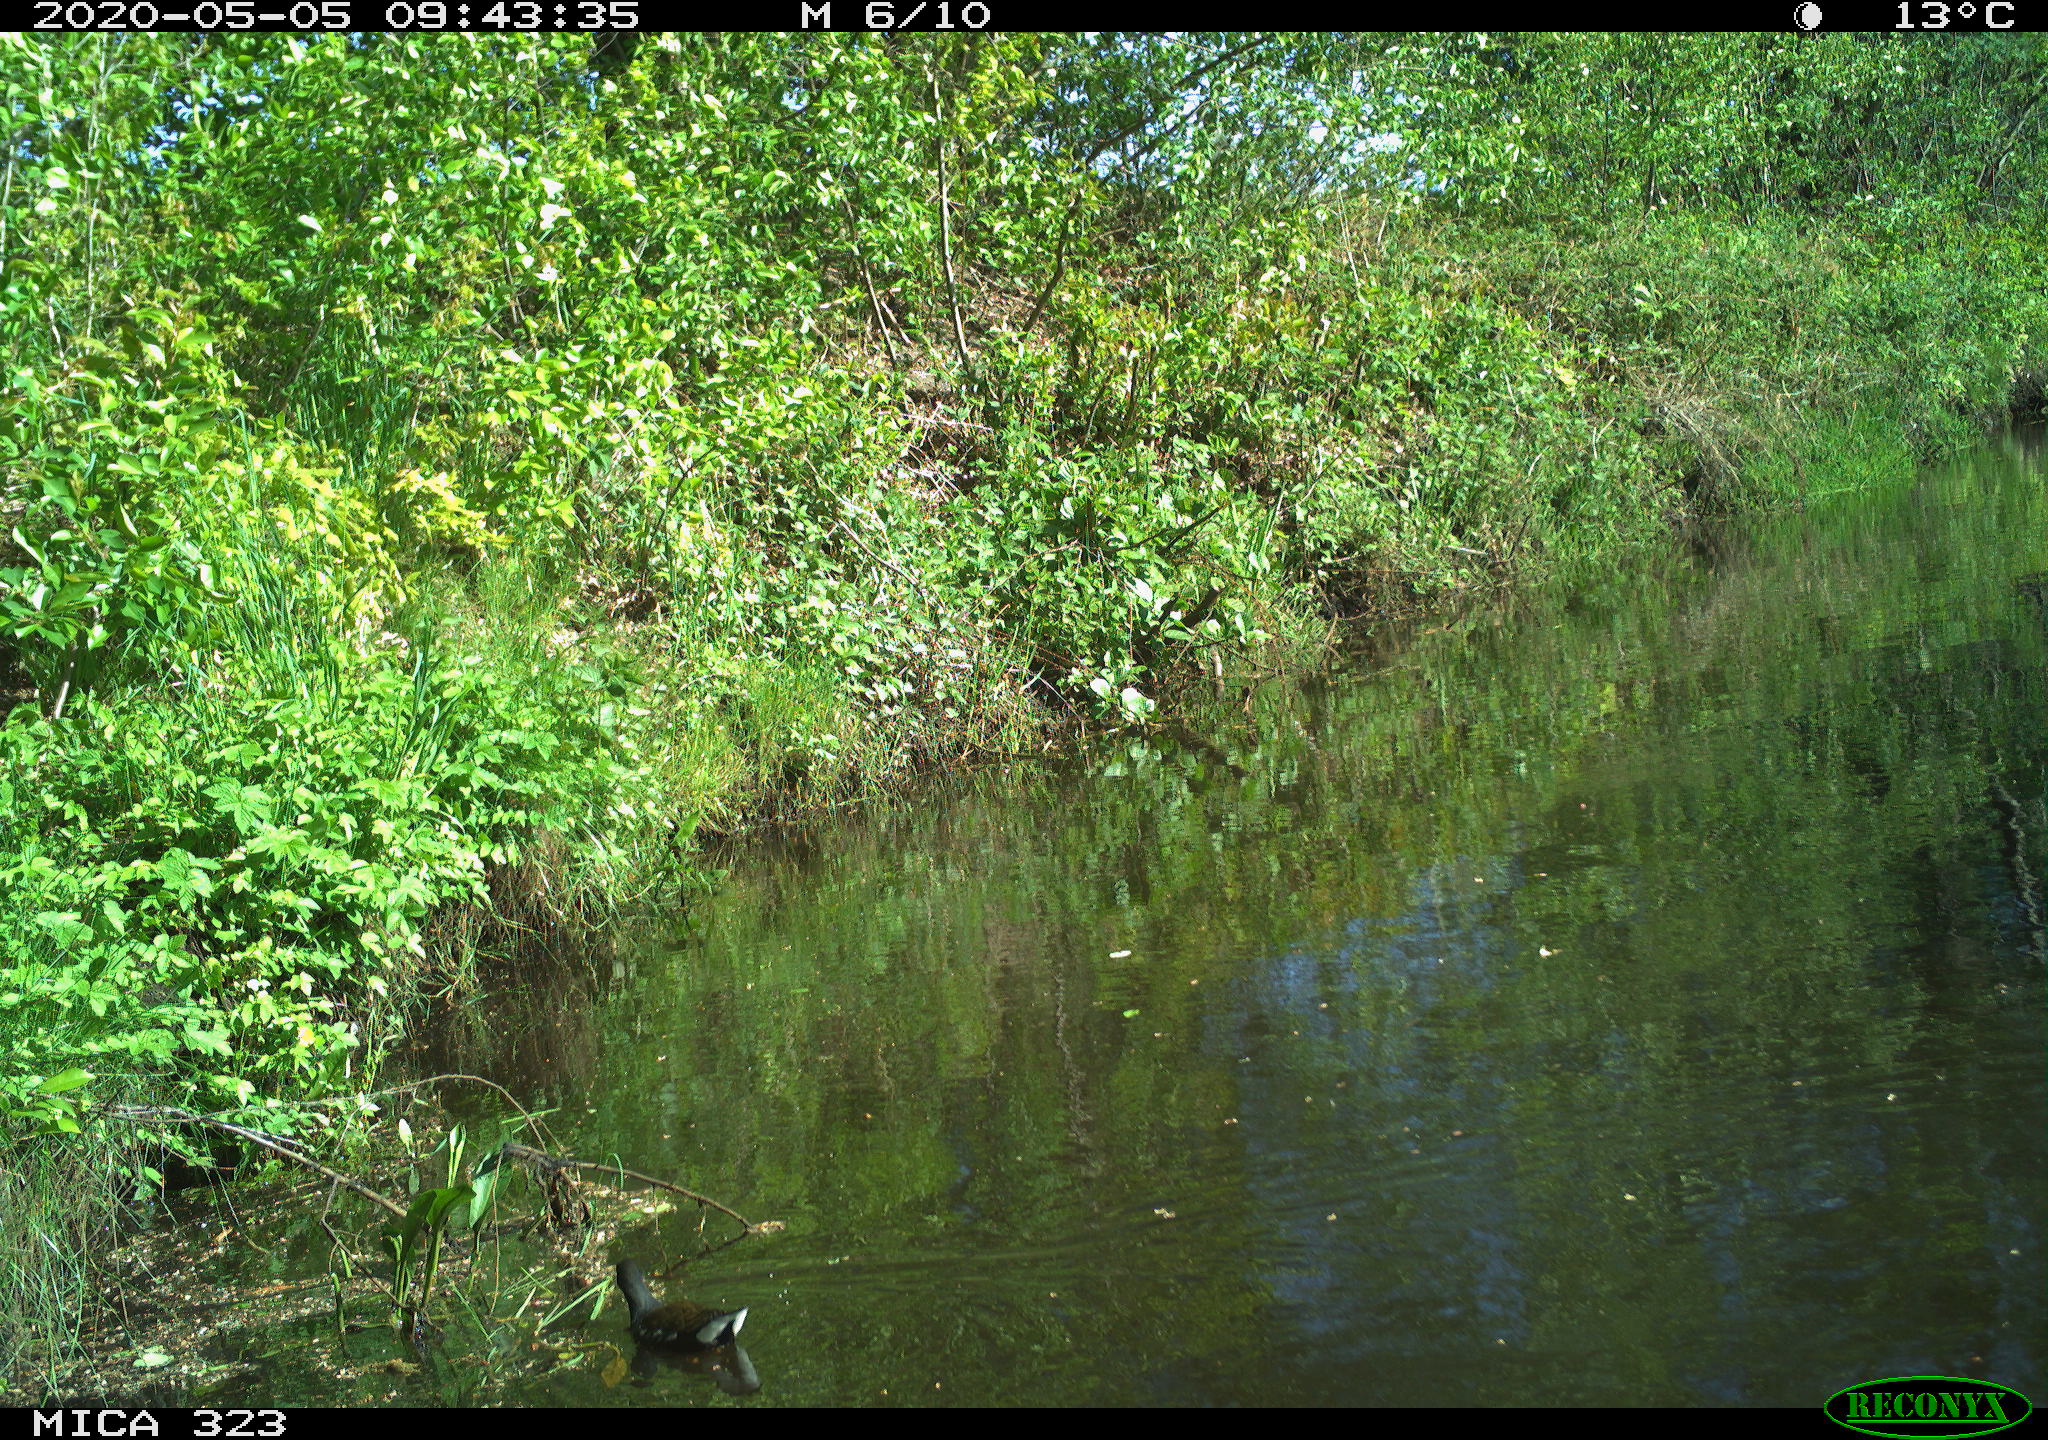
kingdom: Animalia
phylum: Chordata
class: Aves
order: Gruiformes
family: Rallidae
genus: Gallinula
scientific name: Gallinula chloropus
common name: Common moorhen
